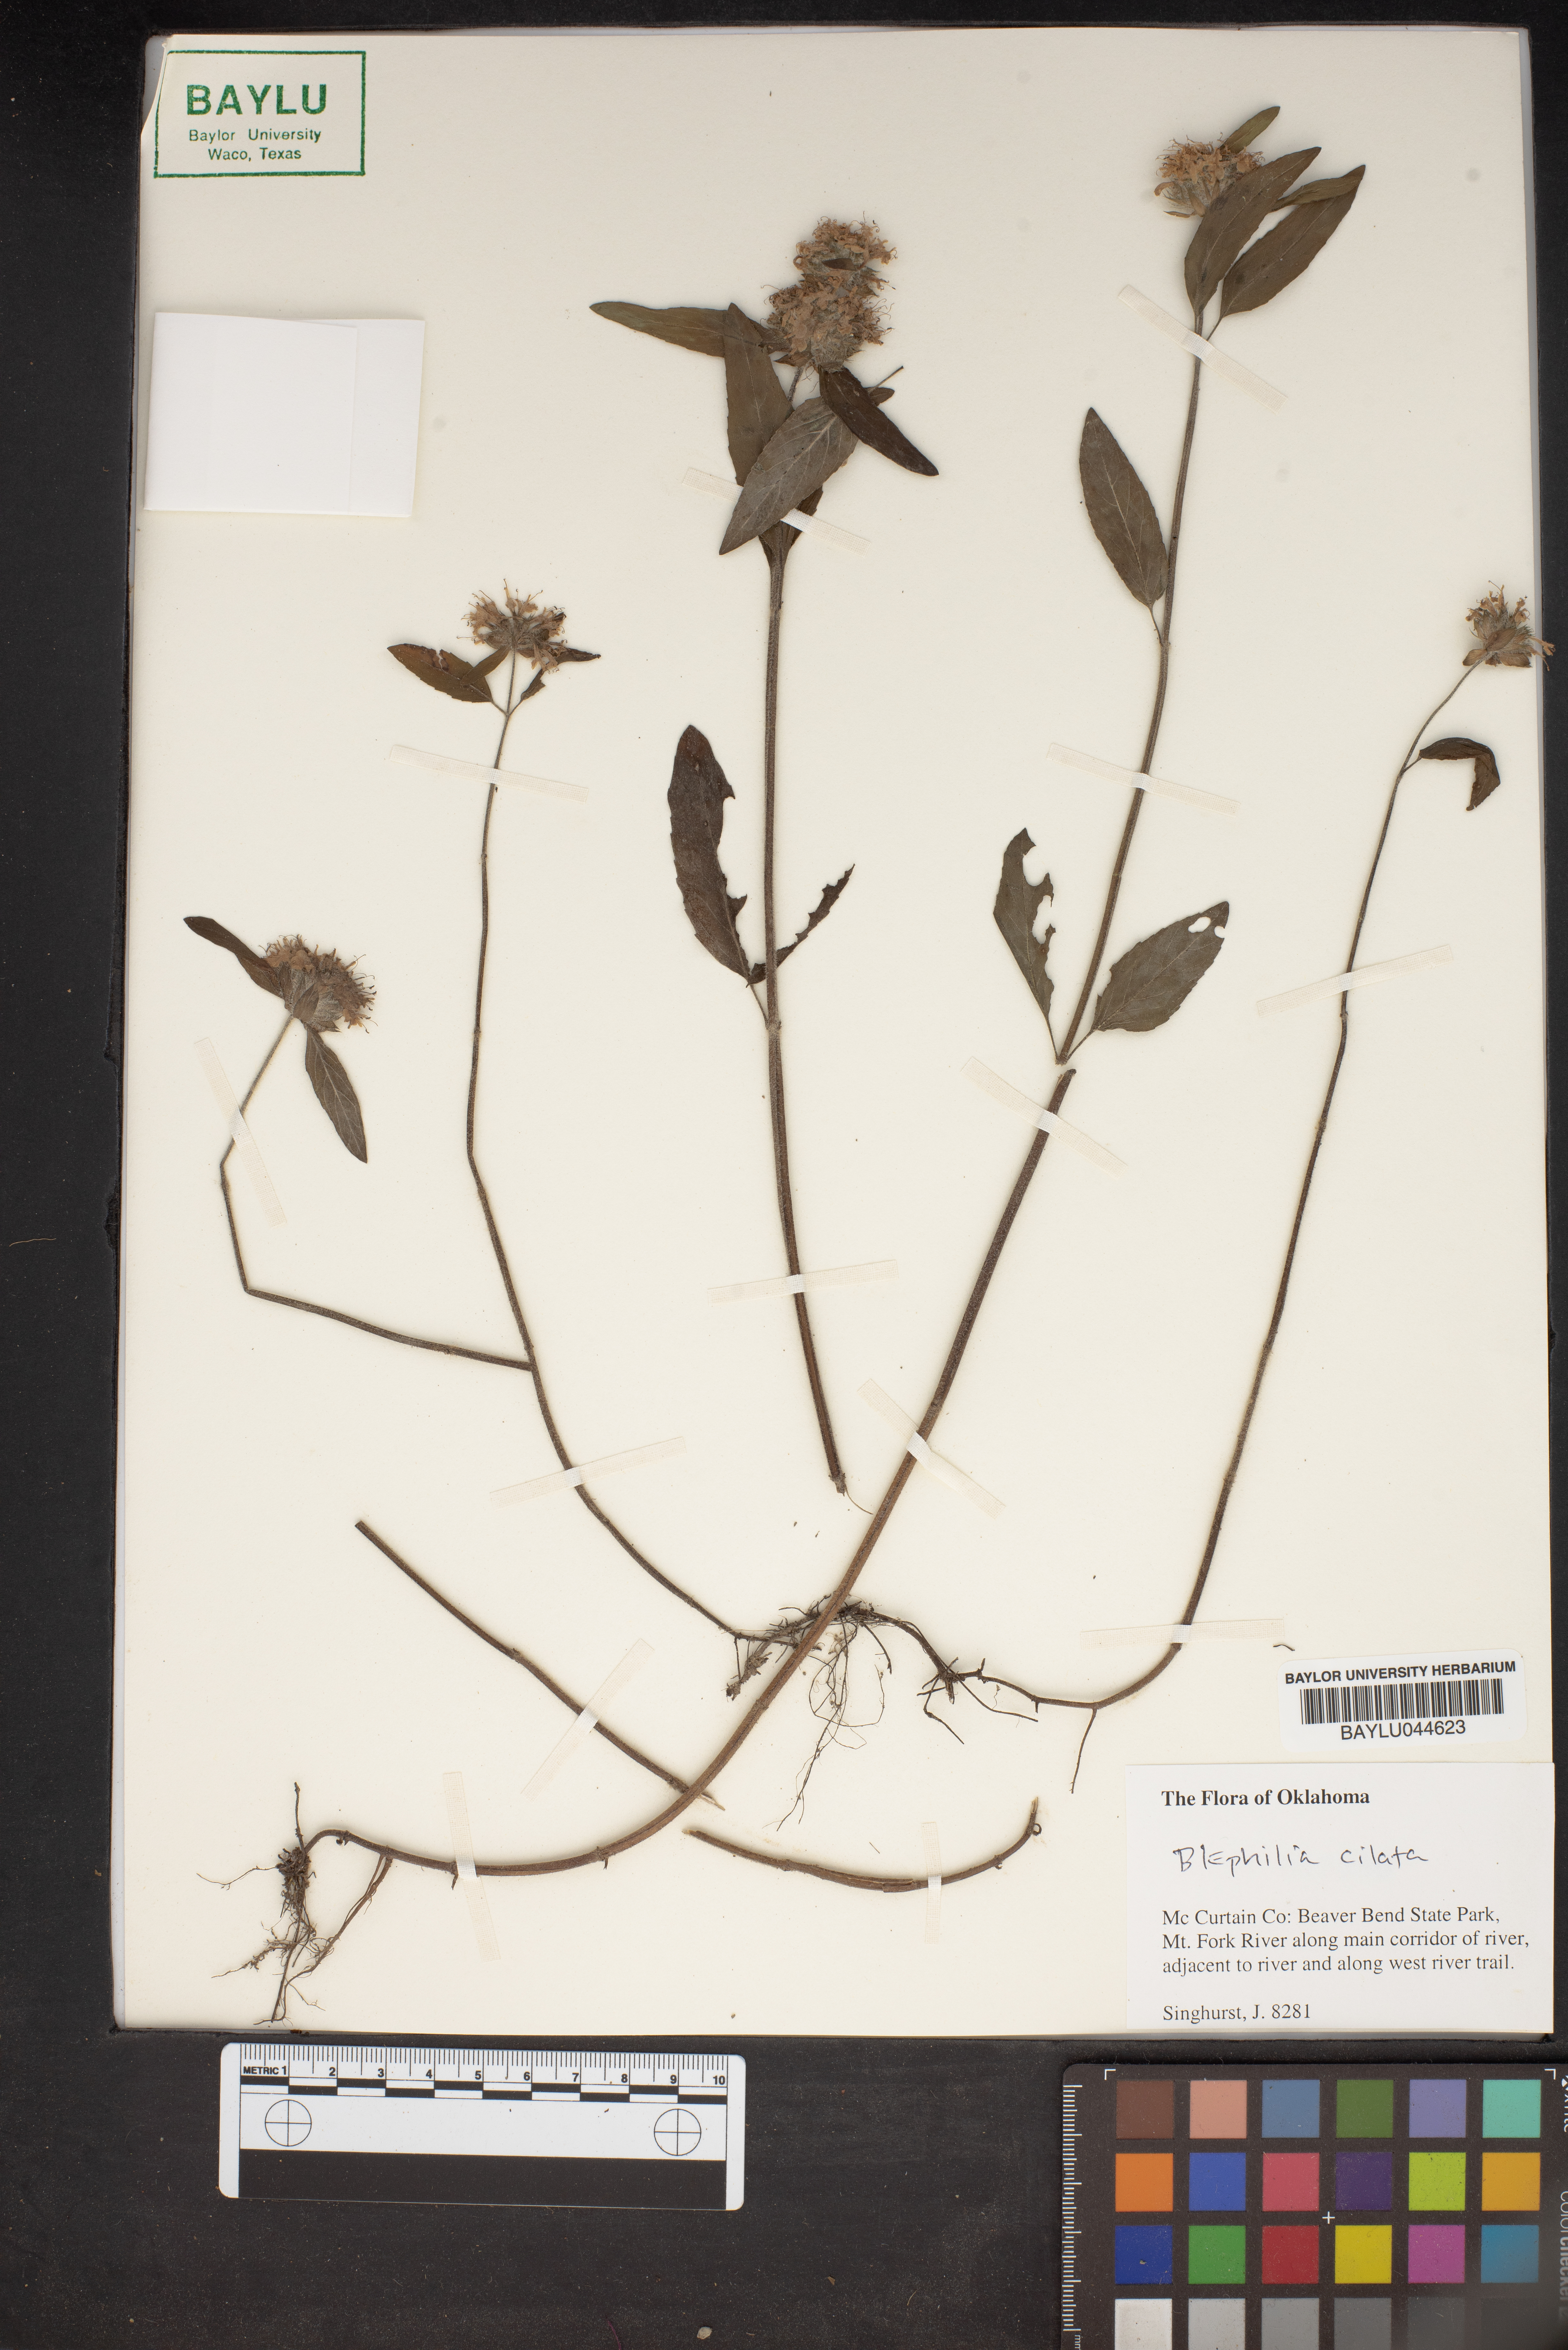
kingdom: Plantae
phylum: Tracheophyta
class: Magnoliopsida
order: Lamiales
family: Lamiaceae
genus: Blephilia
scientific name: Blephilia ciliata
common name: Downy blephilia
